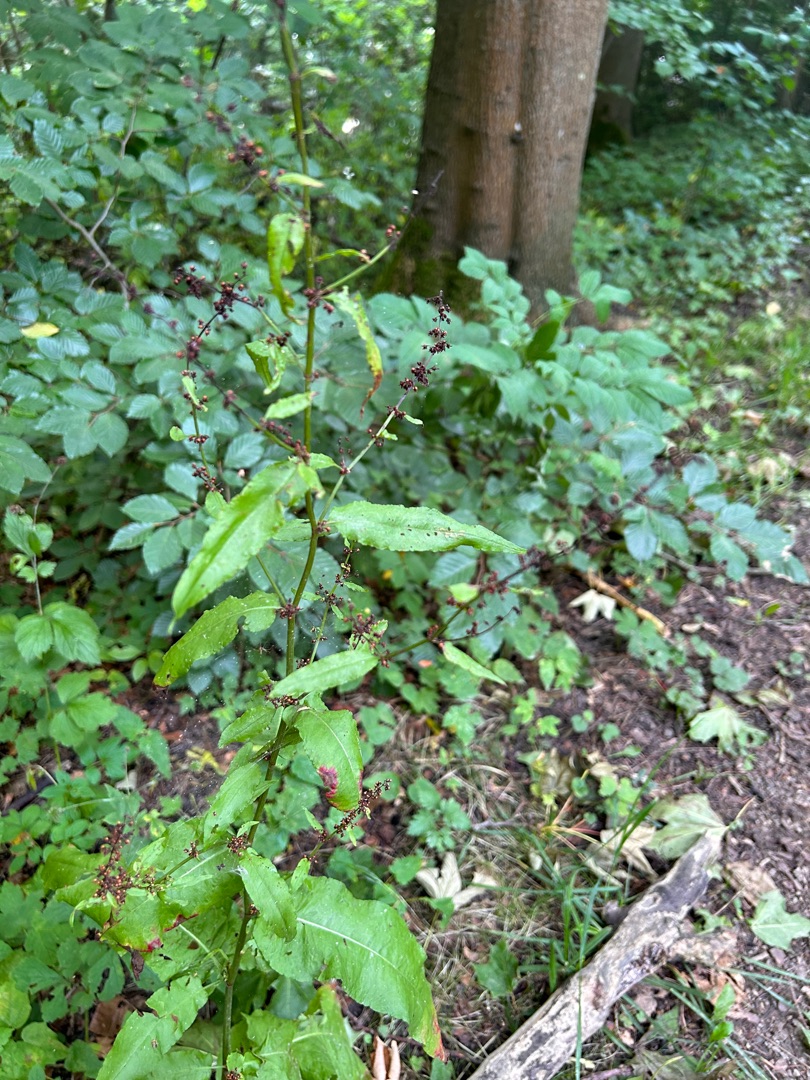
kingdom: Plantae
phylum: Tracheophyta
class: Magnoliopsida
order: Caryophyllales
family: Polygonaceae
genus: Rumex
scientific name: Rumex sanguineus
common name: Skov-skræppe
